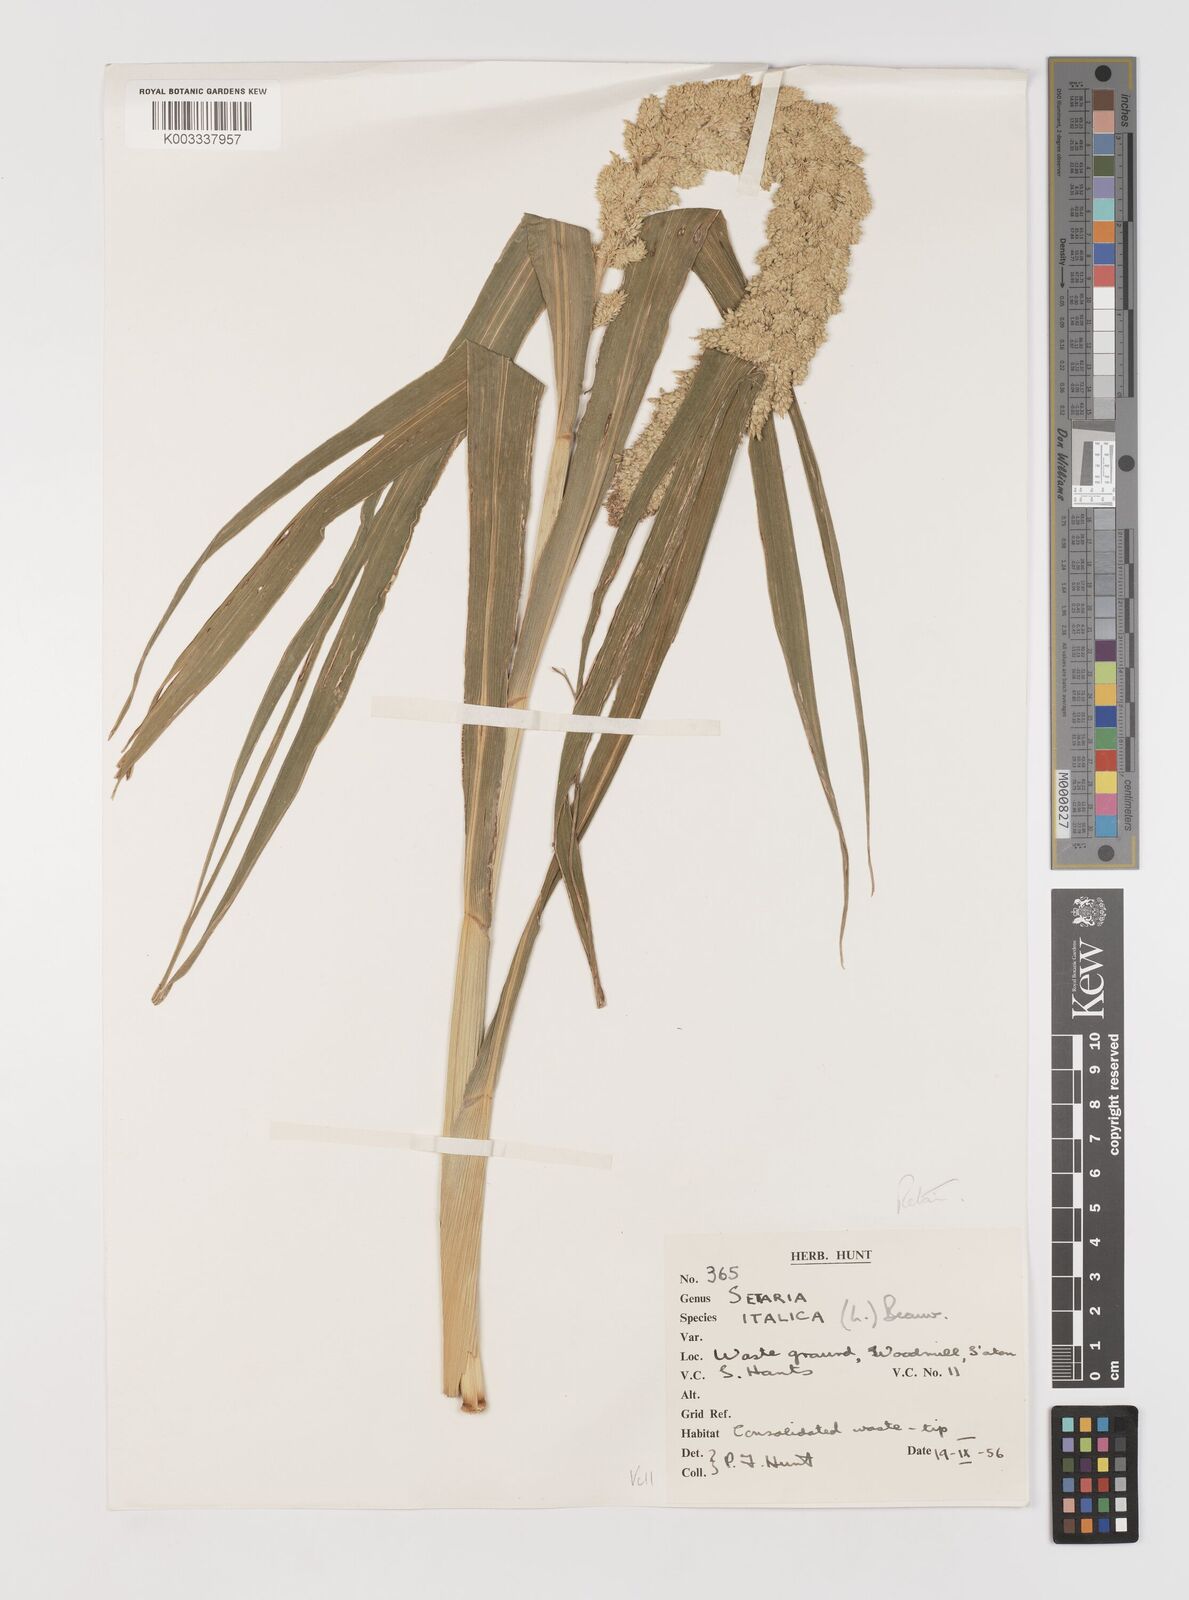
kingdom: Plantae
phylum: Tracheophyta
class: Liliopsida
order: Poales
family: Poaceae
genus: Setaria
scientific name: Setaria italica
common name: Foxtail bristle-grass
